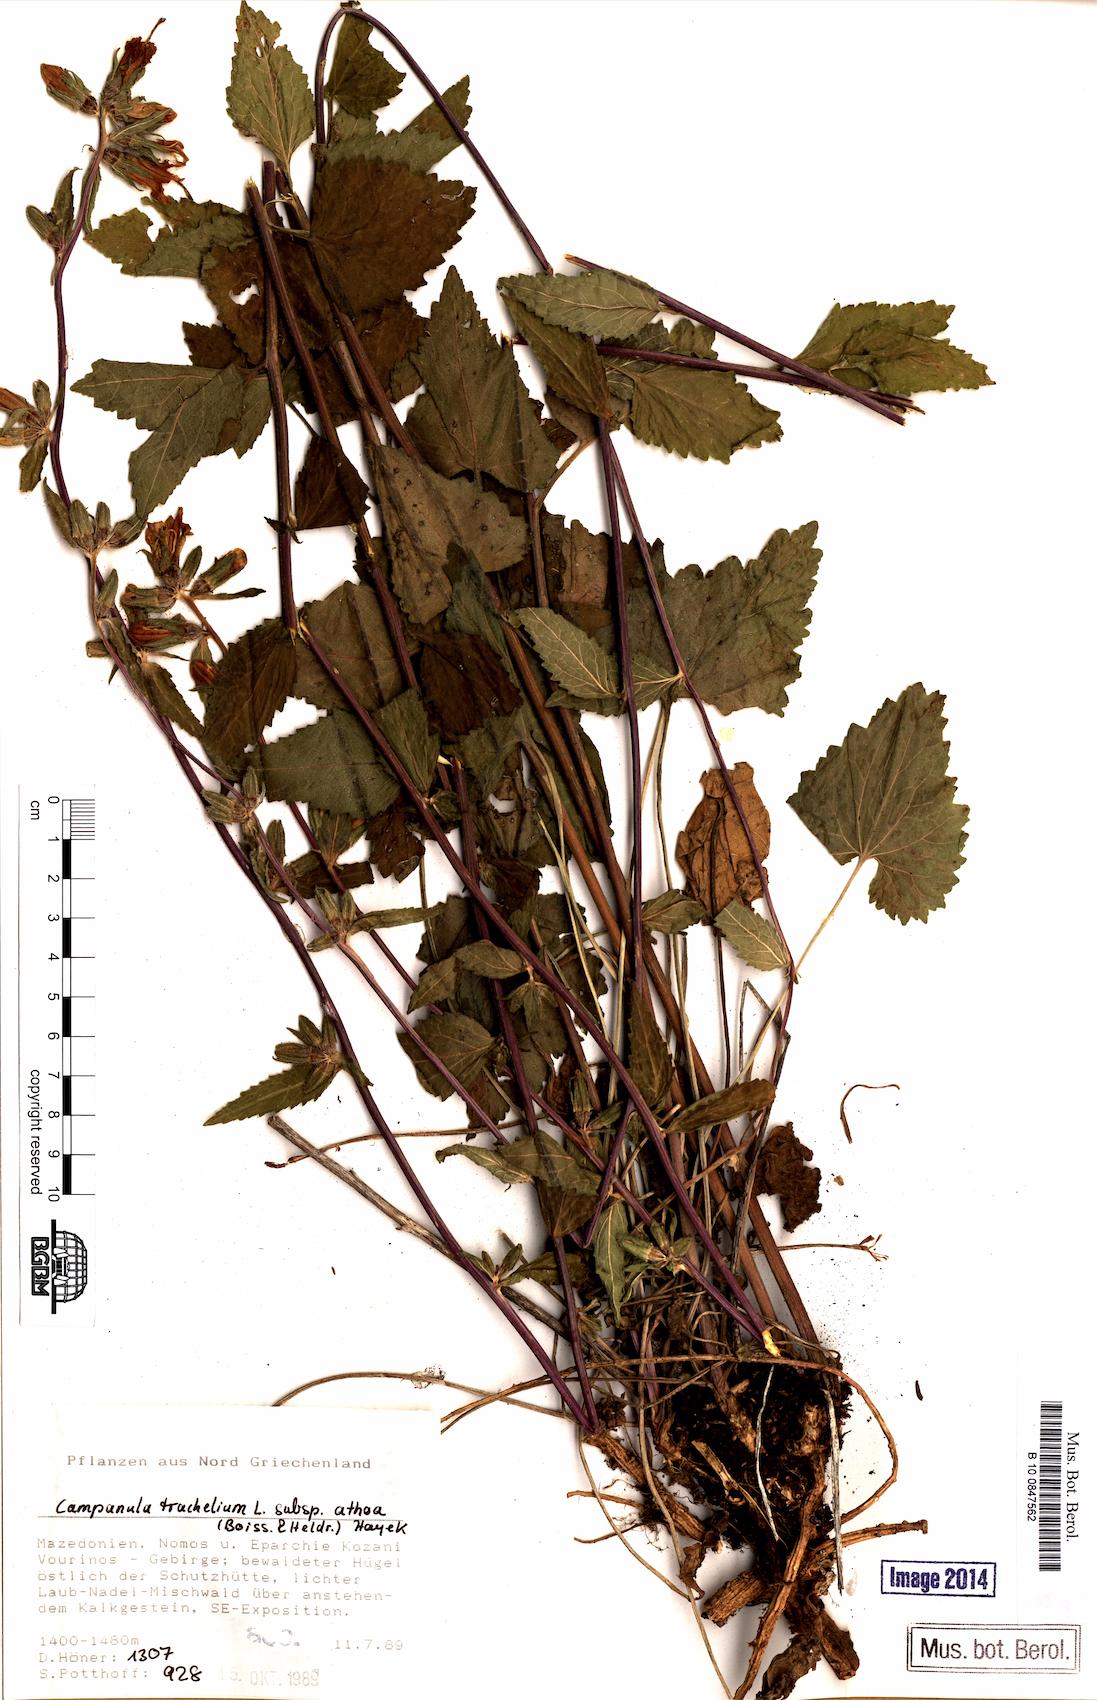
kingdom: Plantae
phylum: Tracheophyta
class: Magnoliopsida
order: Asterales
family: Campanulaceae
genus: Campanula
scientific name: Campanula trachelium
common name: Nettle-leaved bellflower
